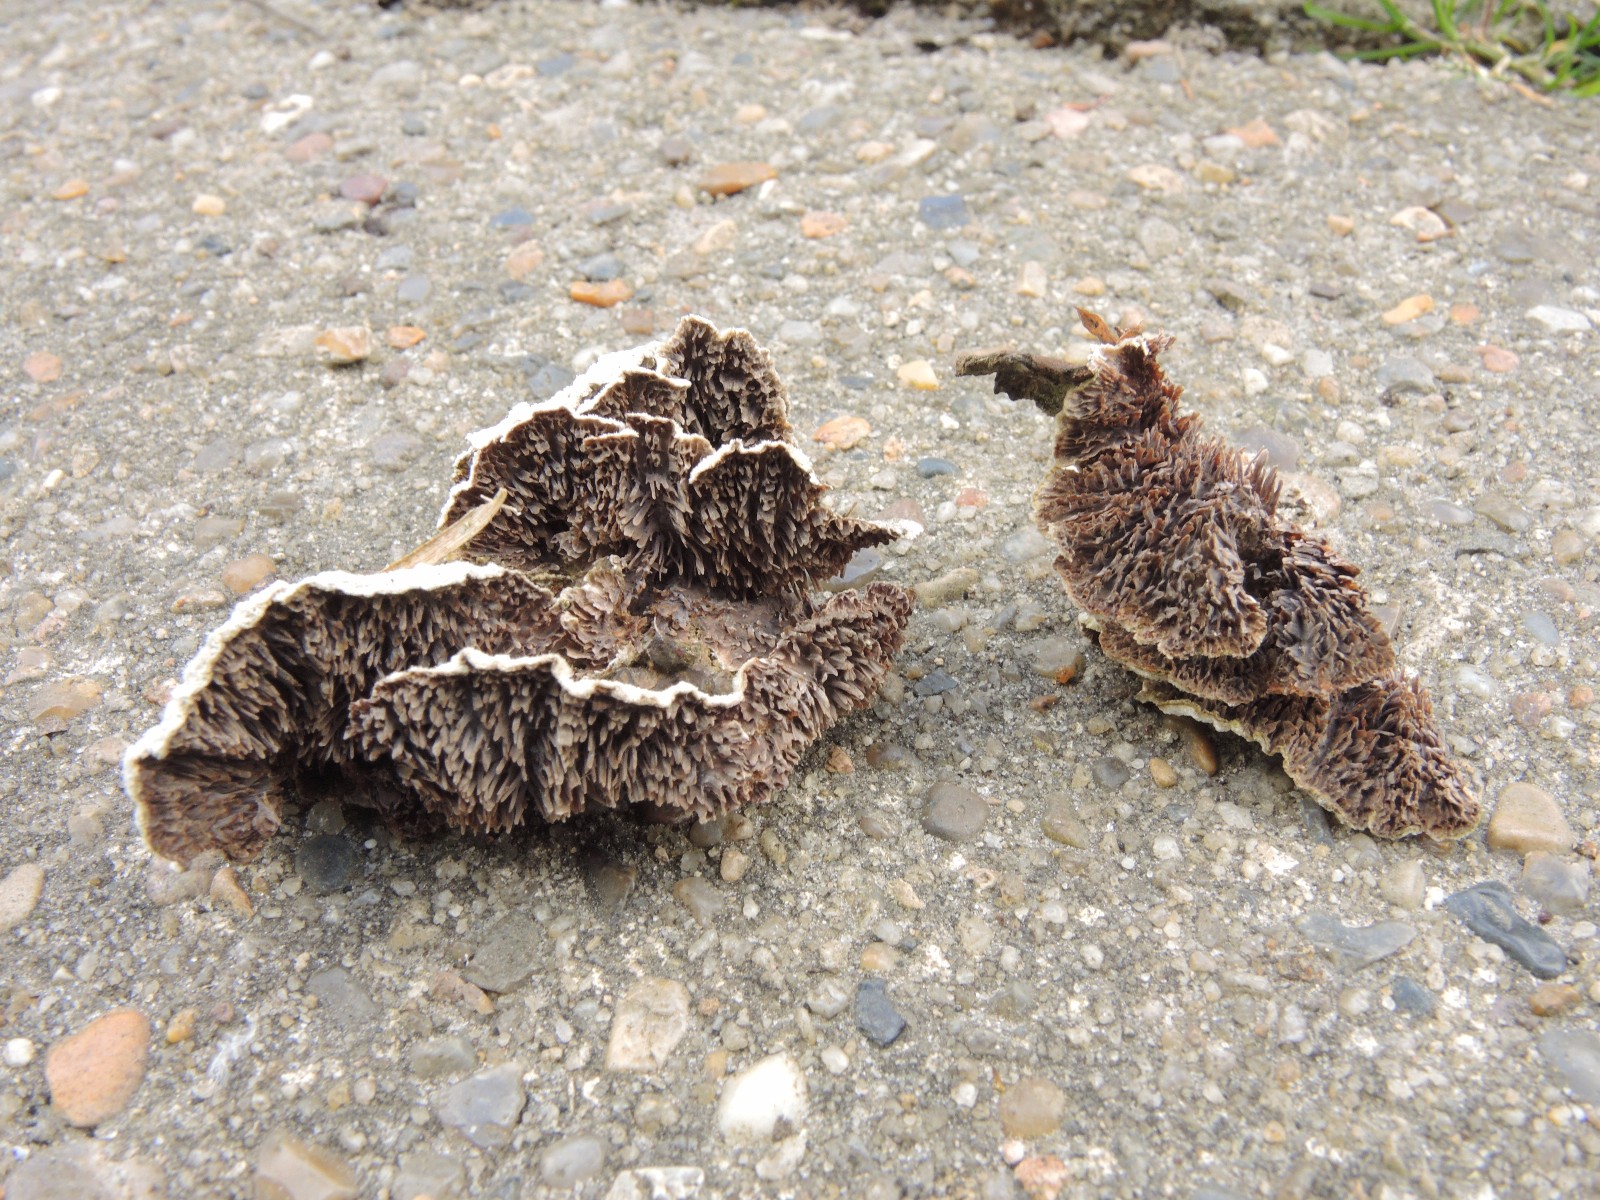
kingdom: Fungi
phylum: Basidiomycota
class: Agaricomycetes
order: Hymenochaetales
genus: Trichaptum
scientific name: Trichaptum fuscoviolaceum
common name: tandet violporesvamp
